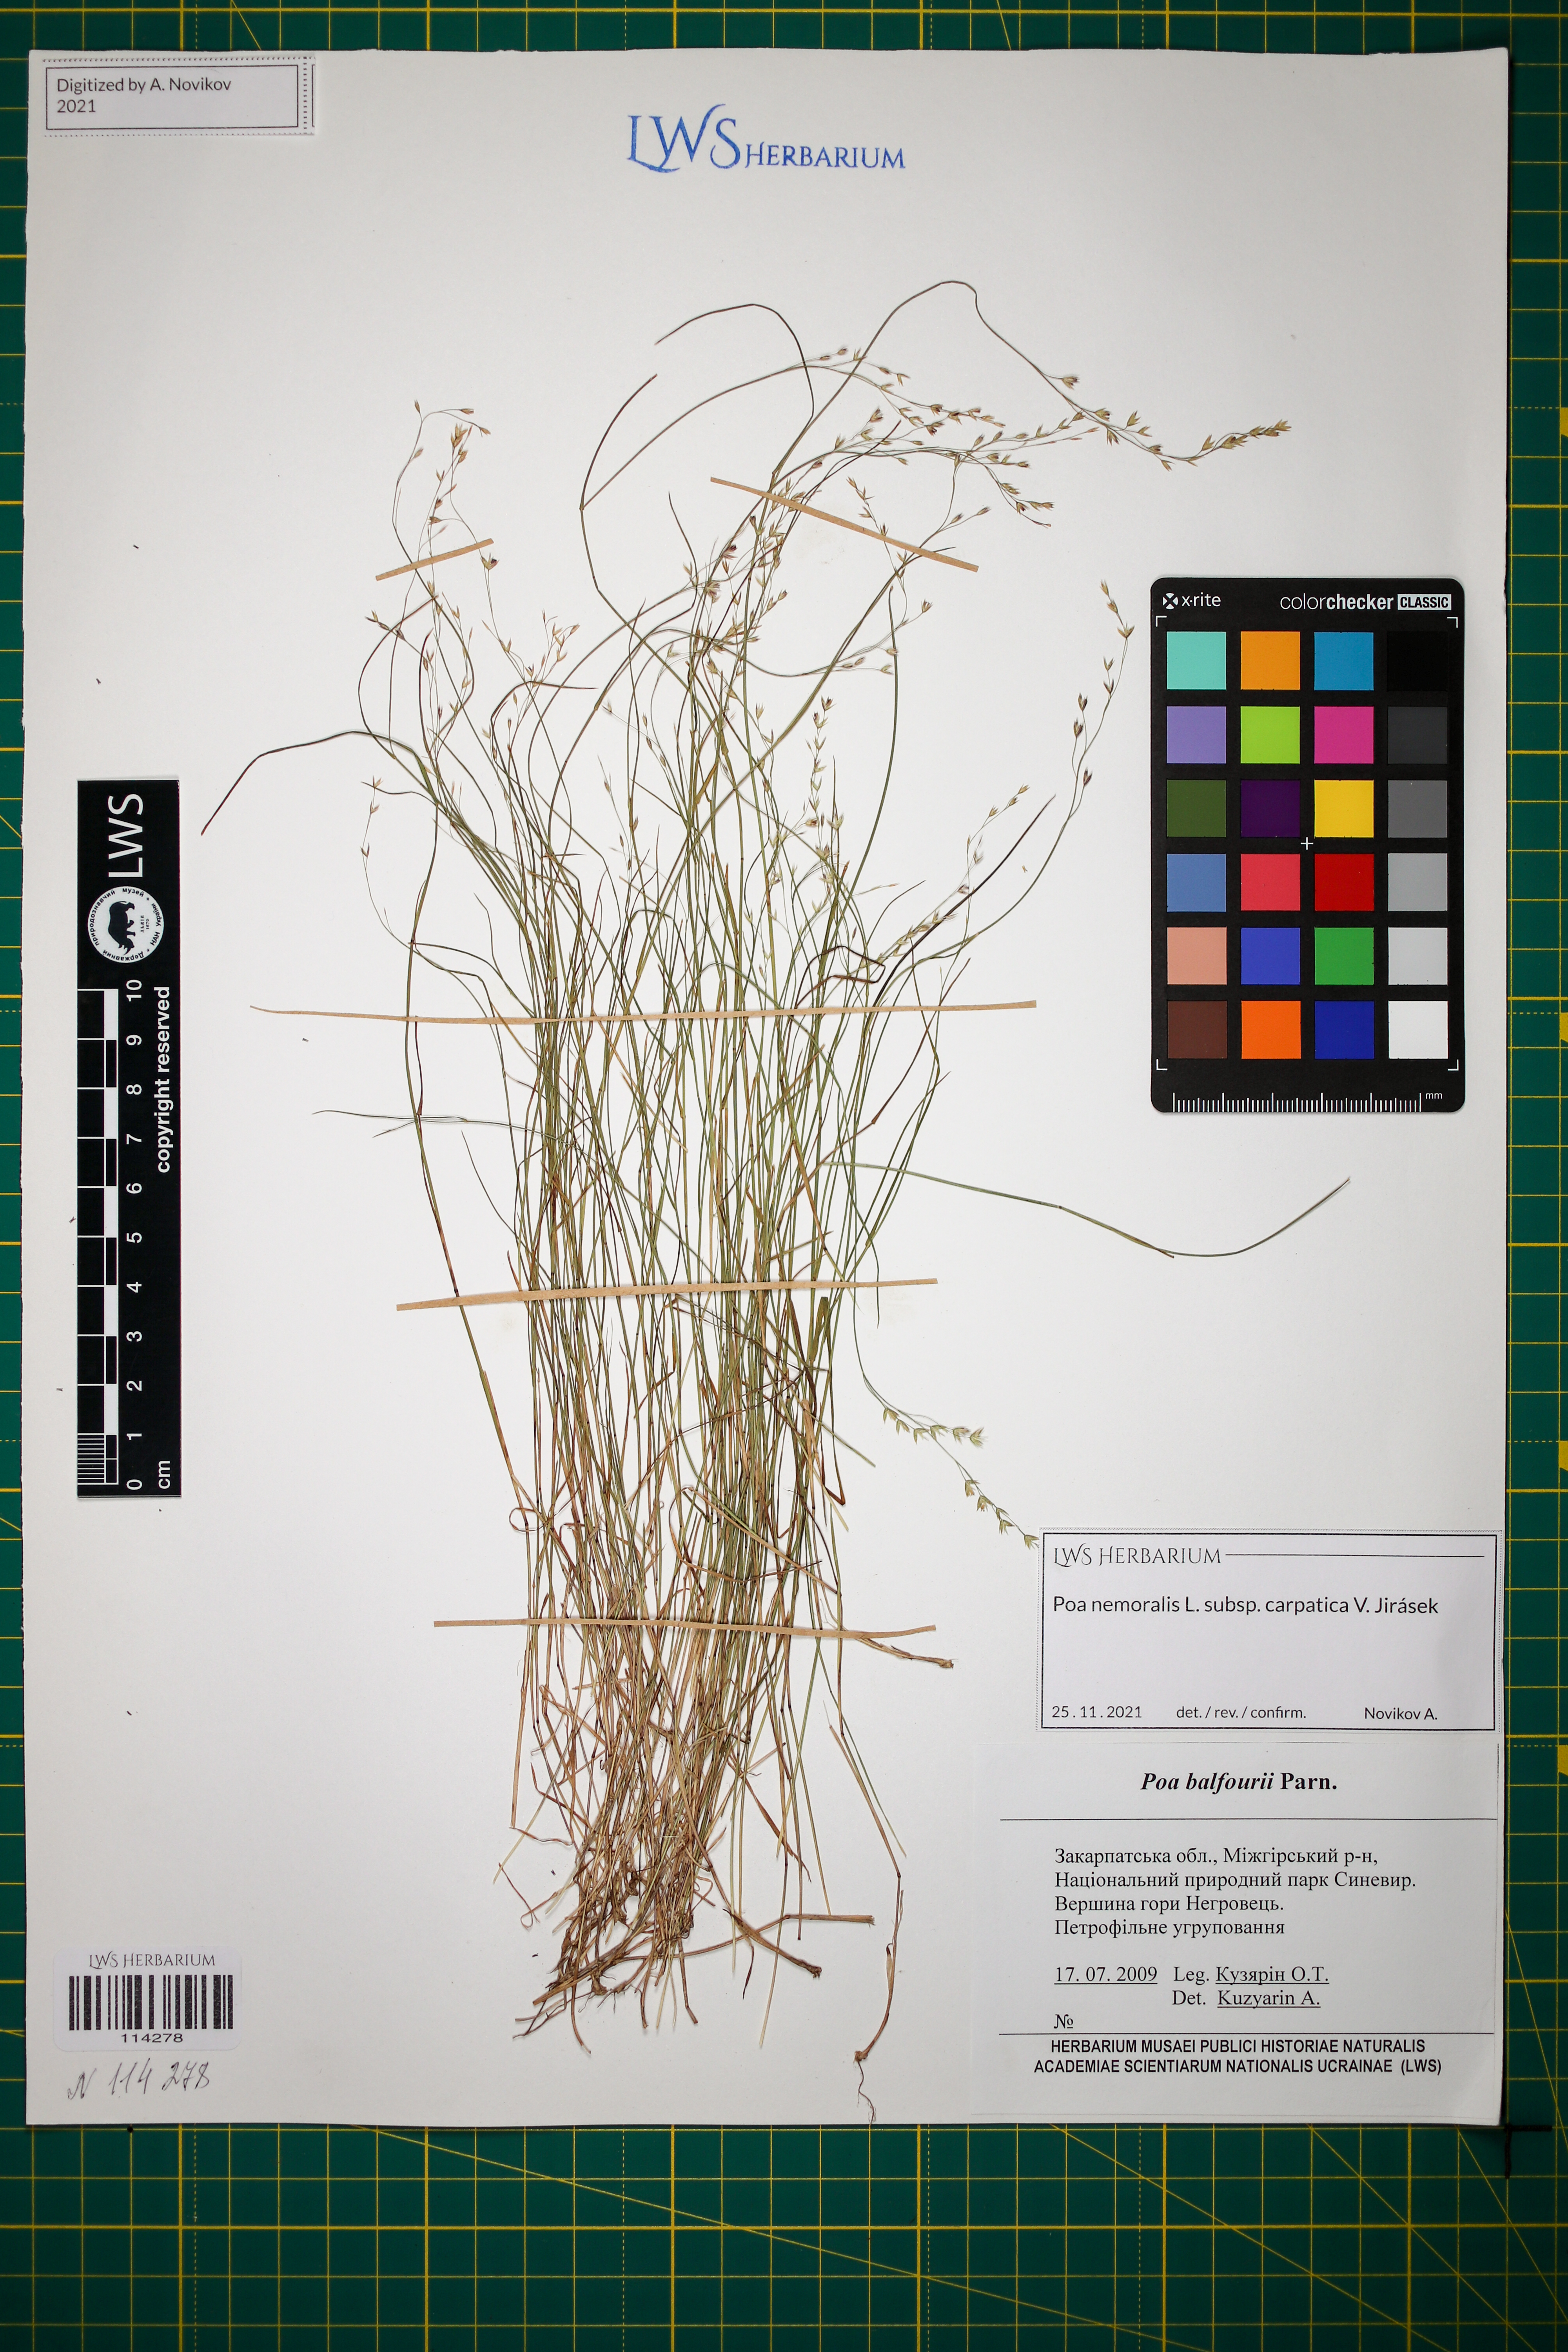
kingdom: Plantae
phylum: Tracheophyta
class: Liliopsida
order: Poales
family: Poaceae
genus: Poa
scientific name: Poa carpatica
